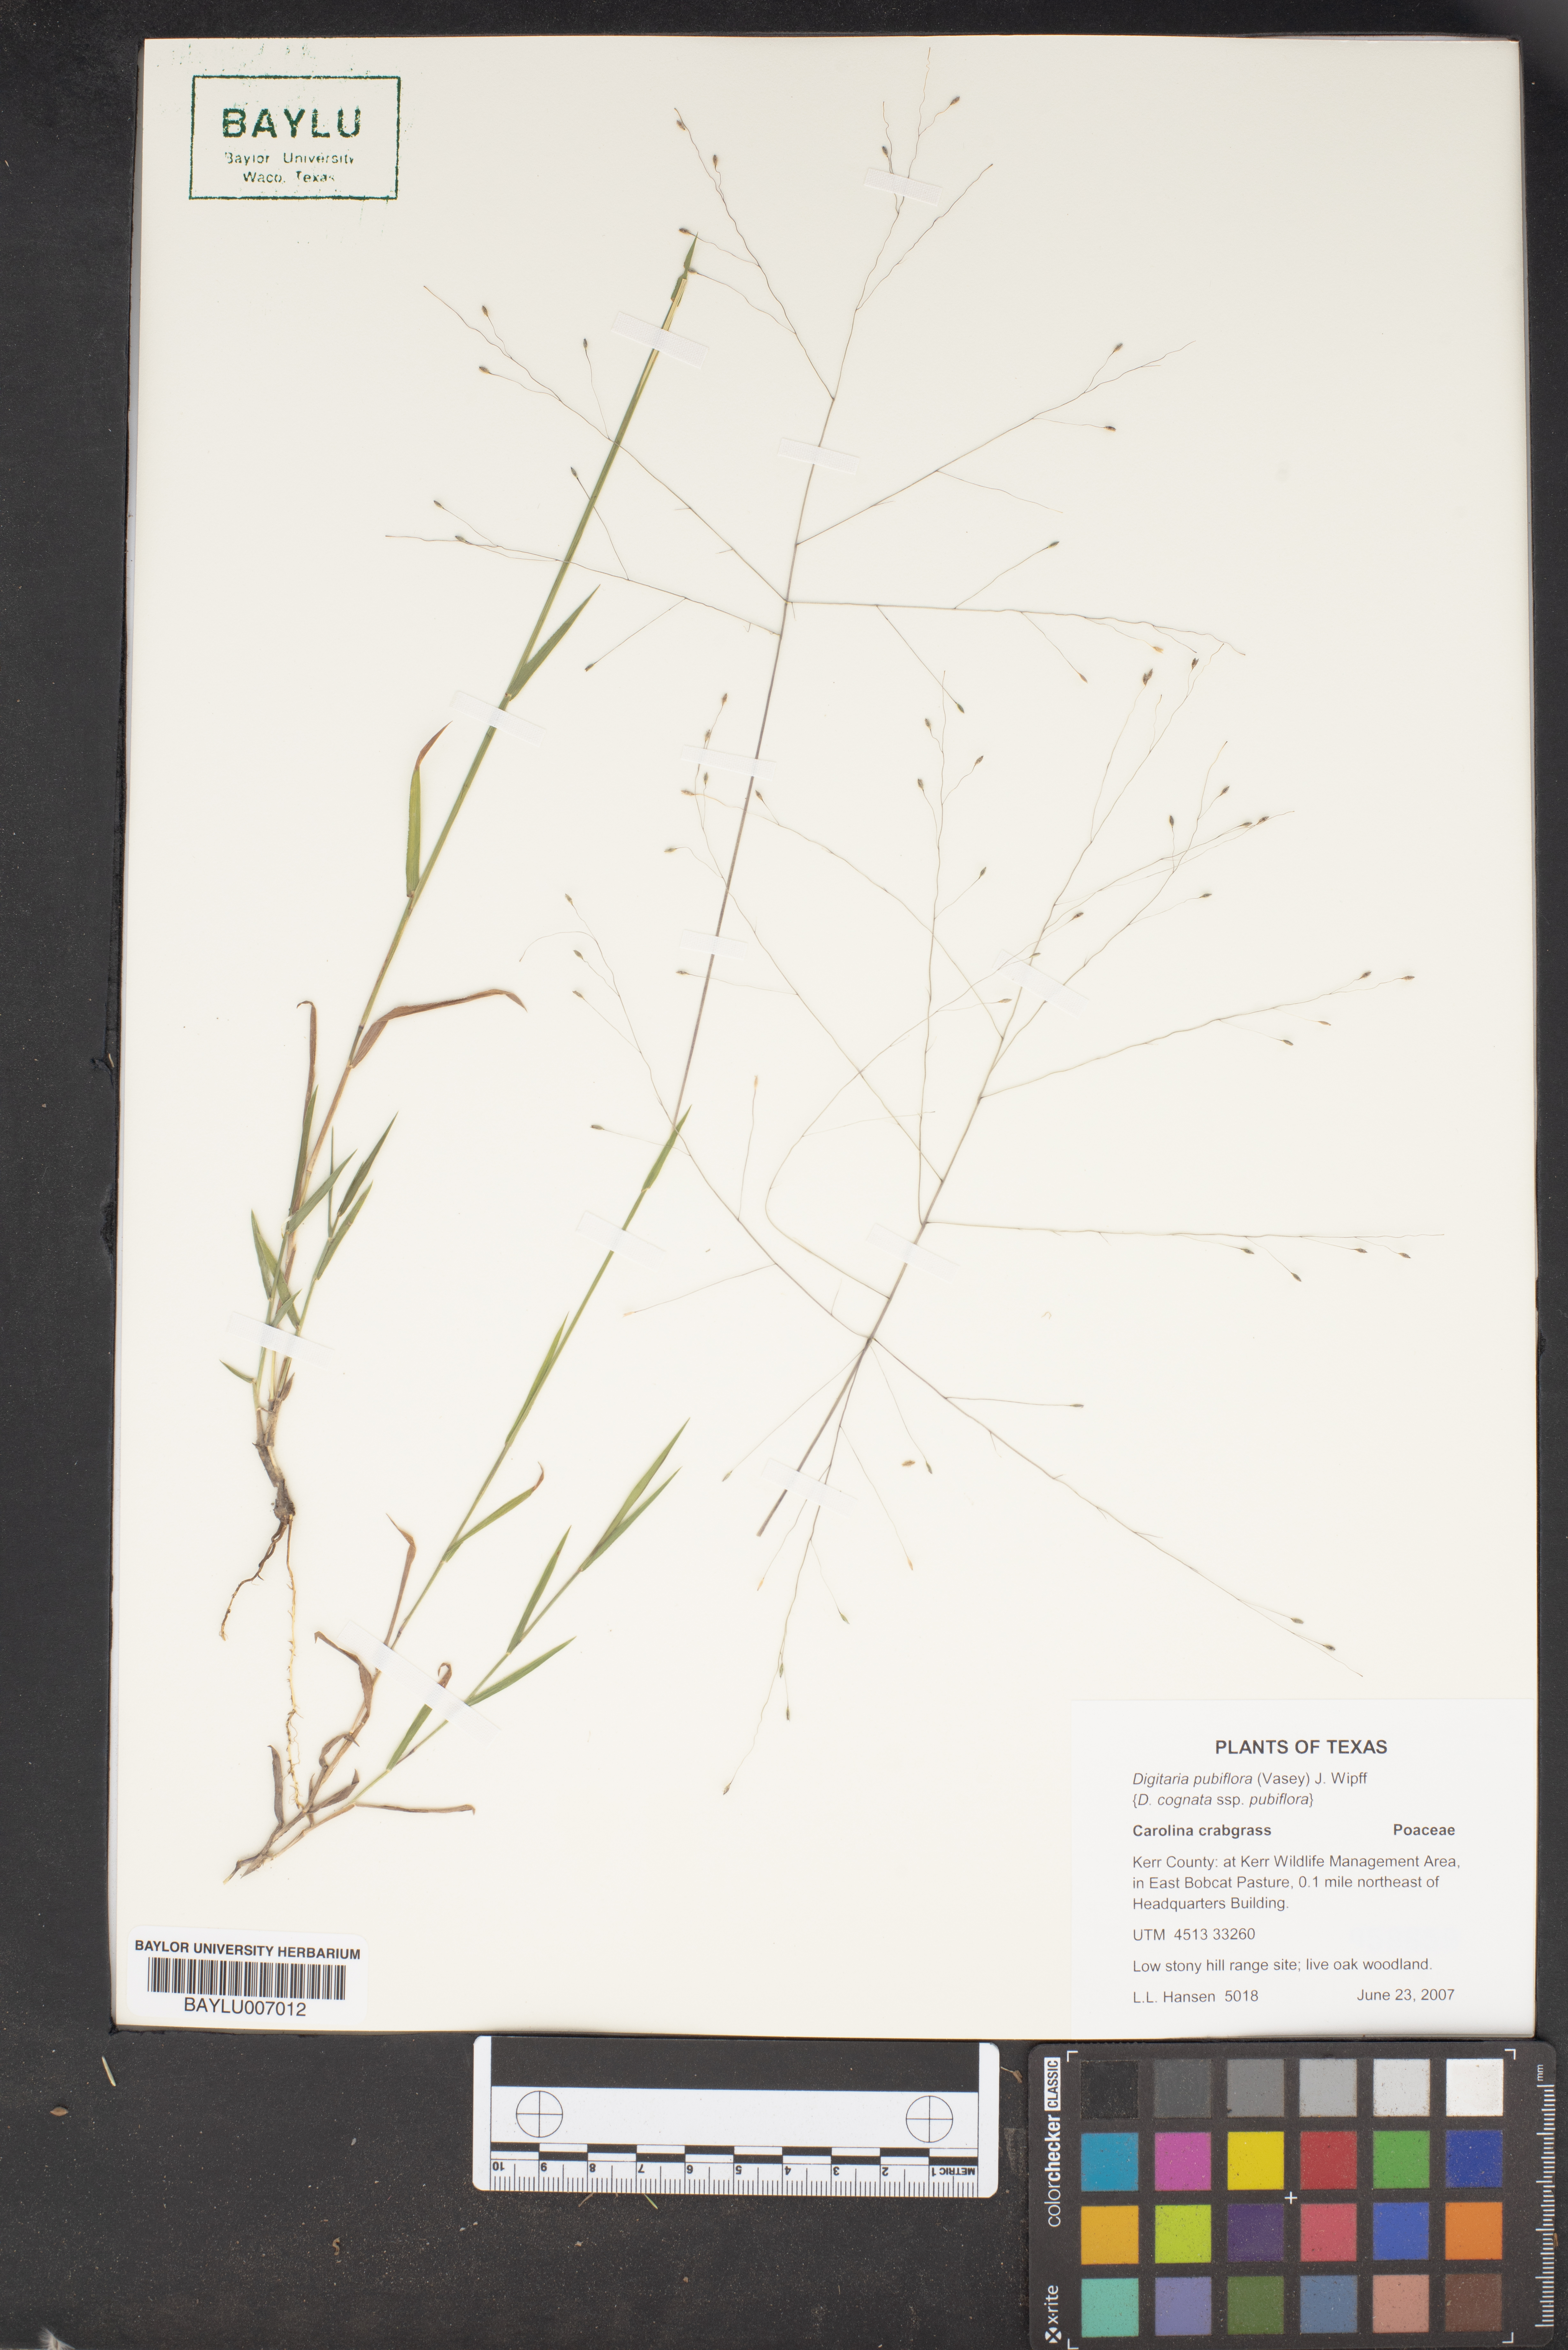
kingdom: Plantae
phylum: Tracheophyta
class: Liliopsida
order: Poales
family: Poaceae
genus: Digitaria
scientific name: Digitaria pubiflora
